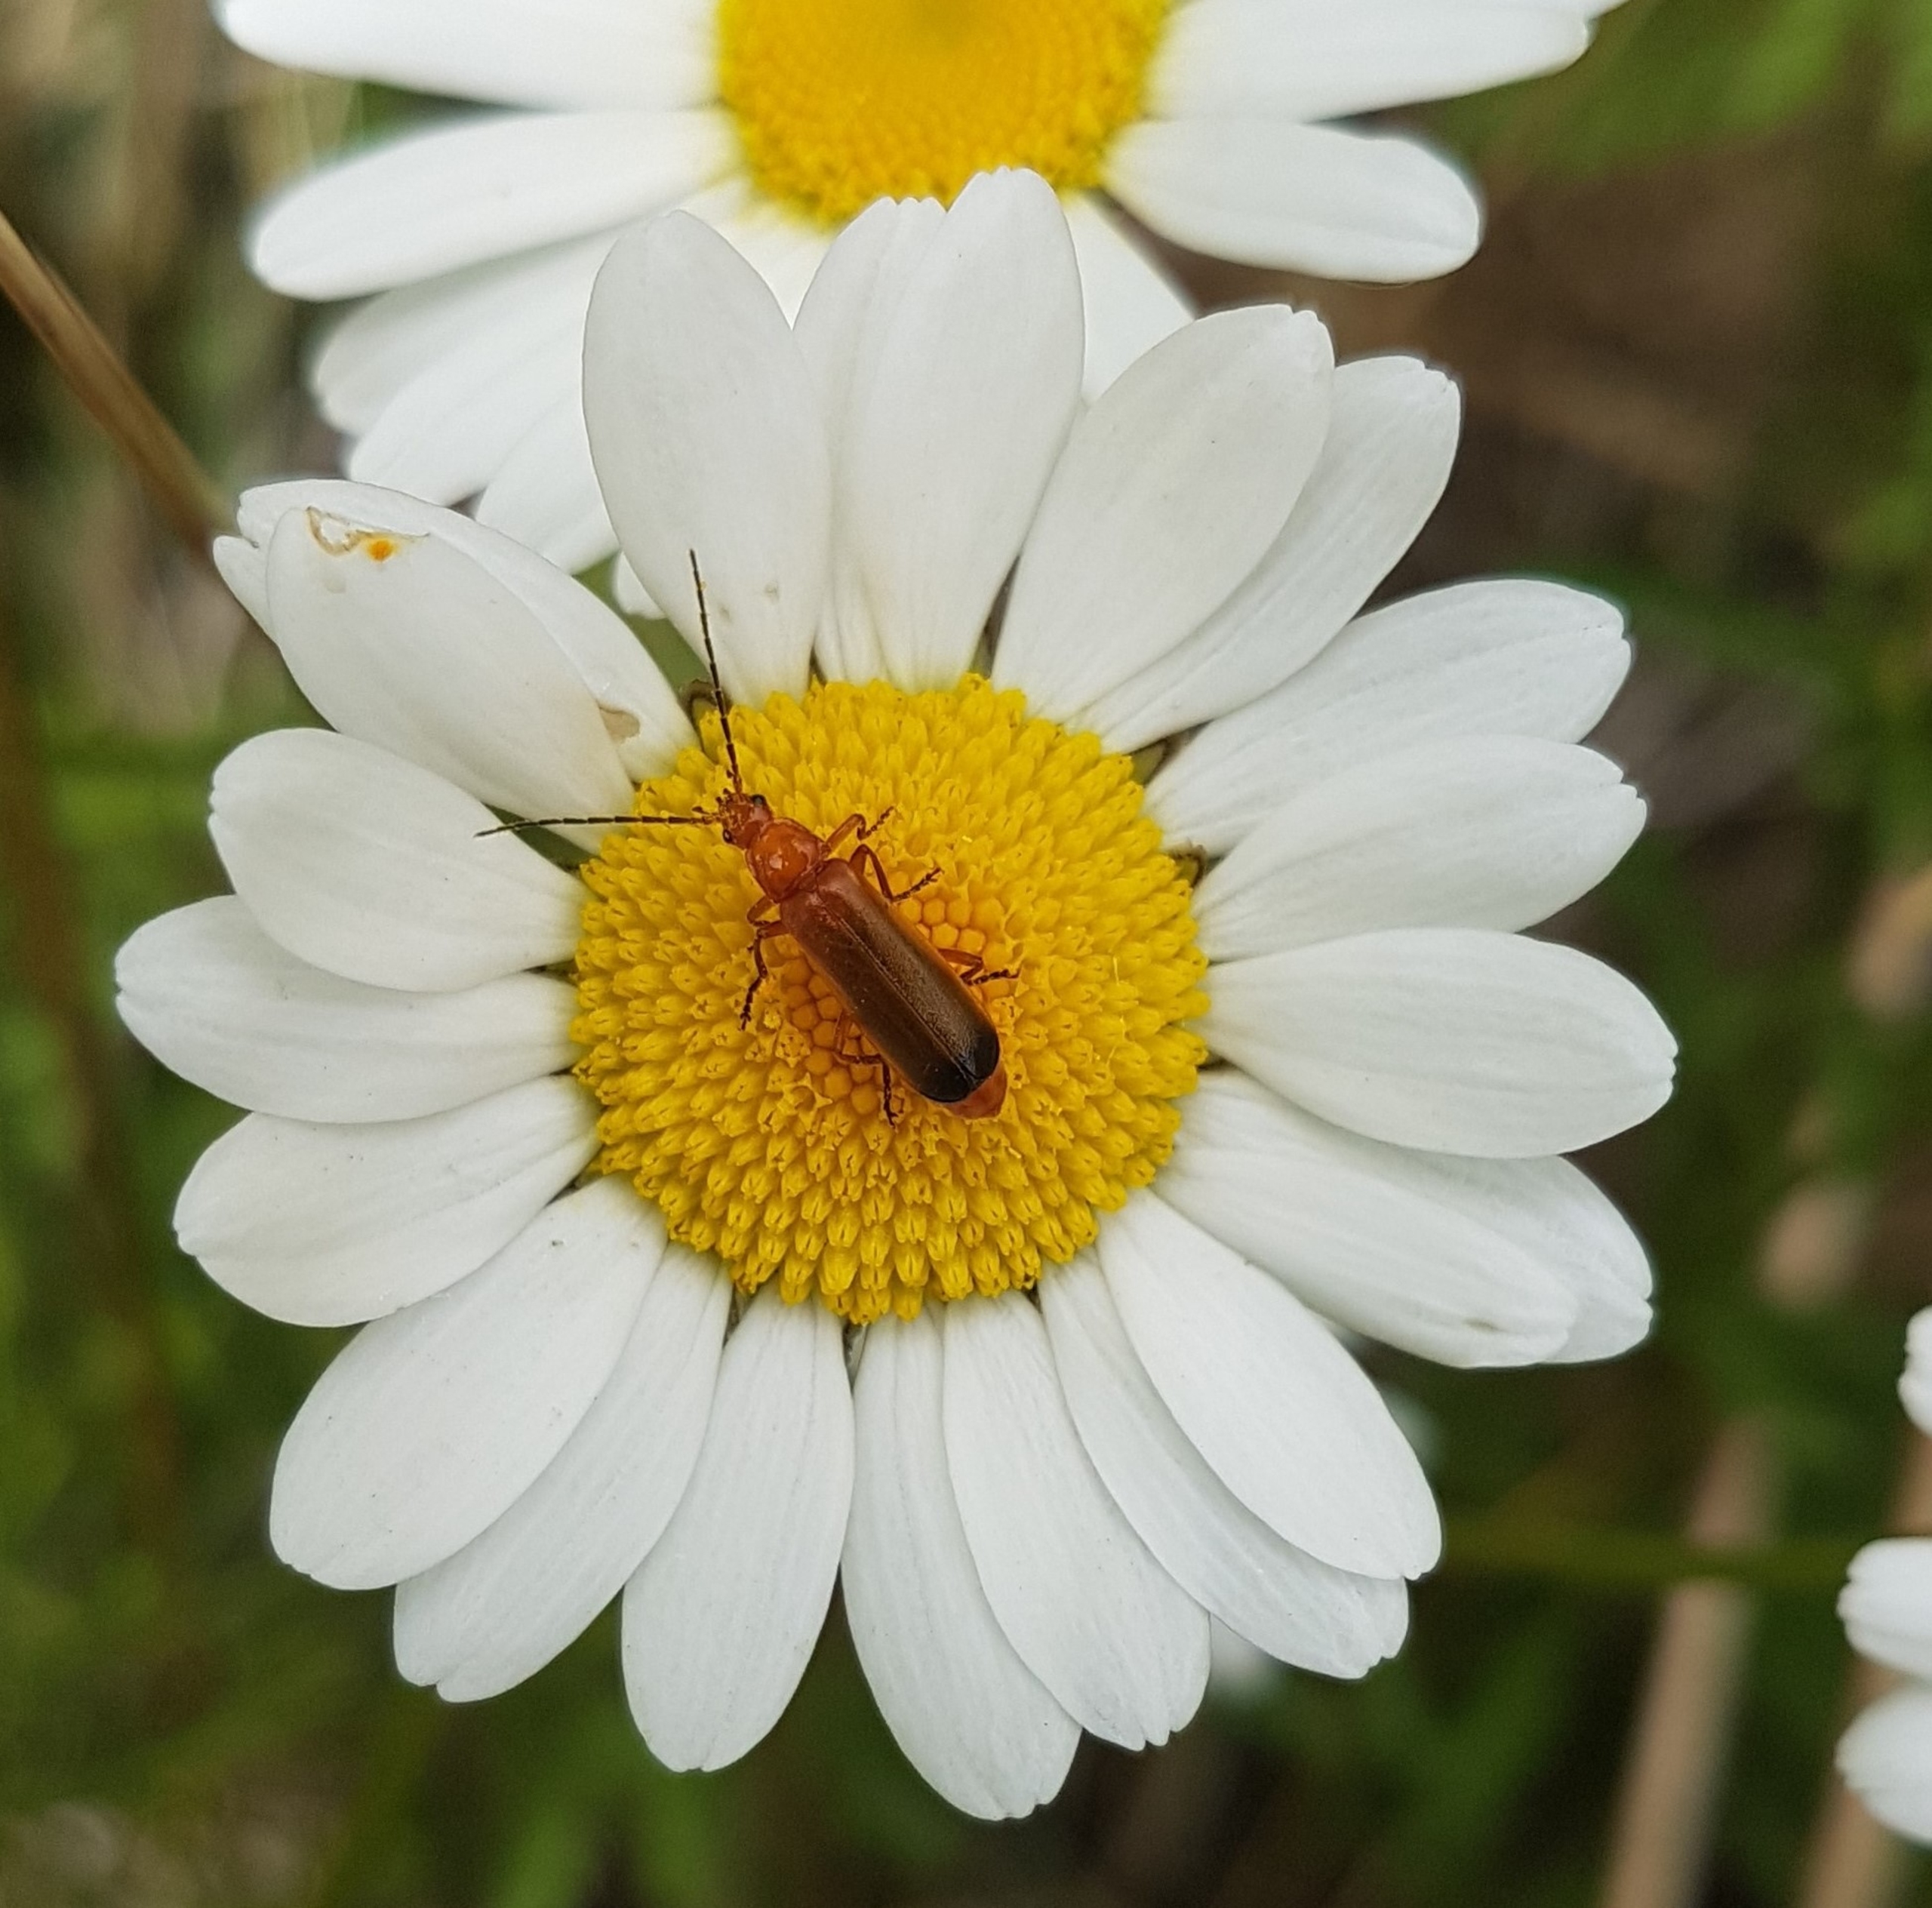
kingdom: Animalia
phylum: Arthropoda
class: Insecta
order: Coleoptera
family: Cantharidae
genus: Rhagonycha
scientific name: Rhagonycha fulva
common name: Præstebille
